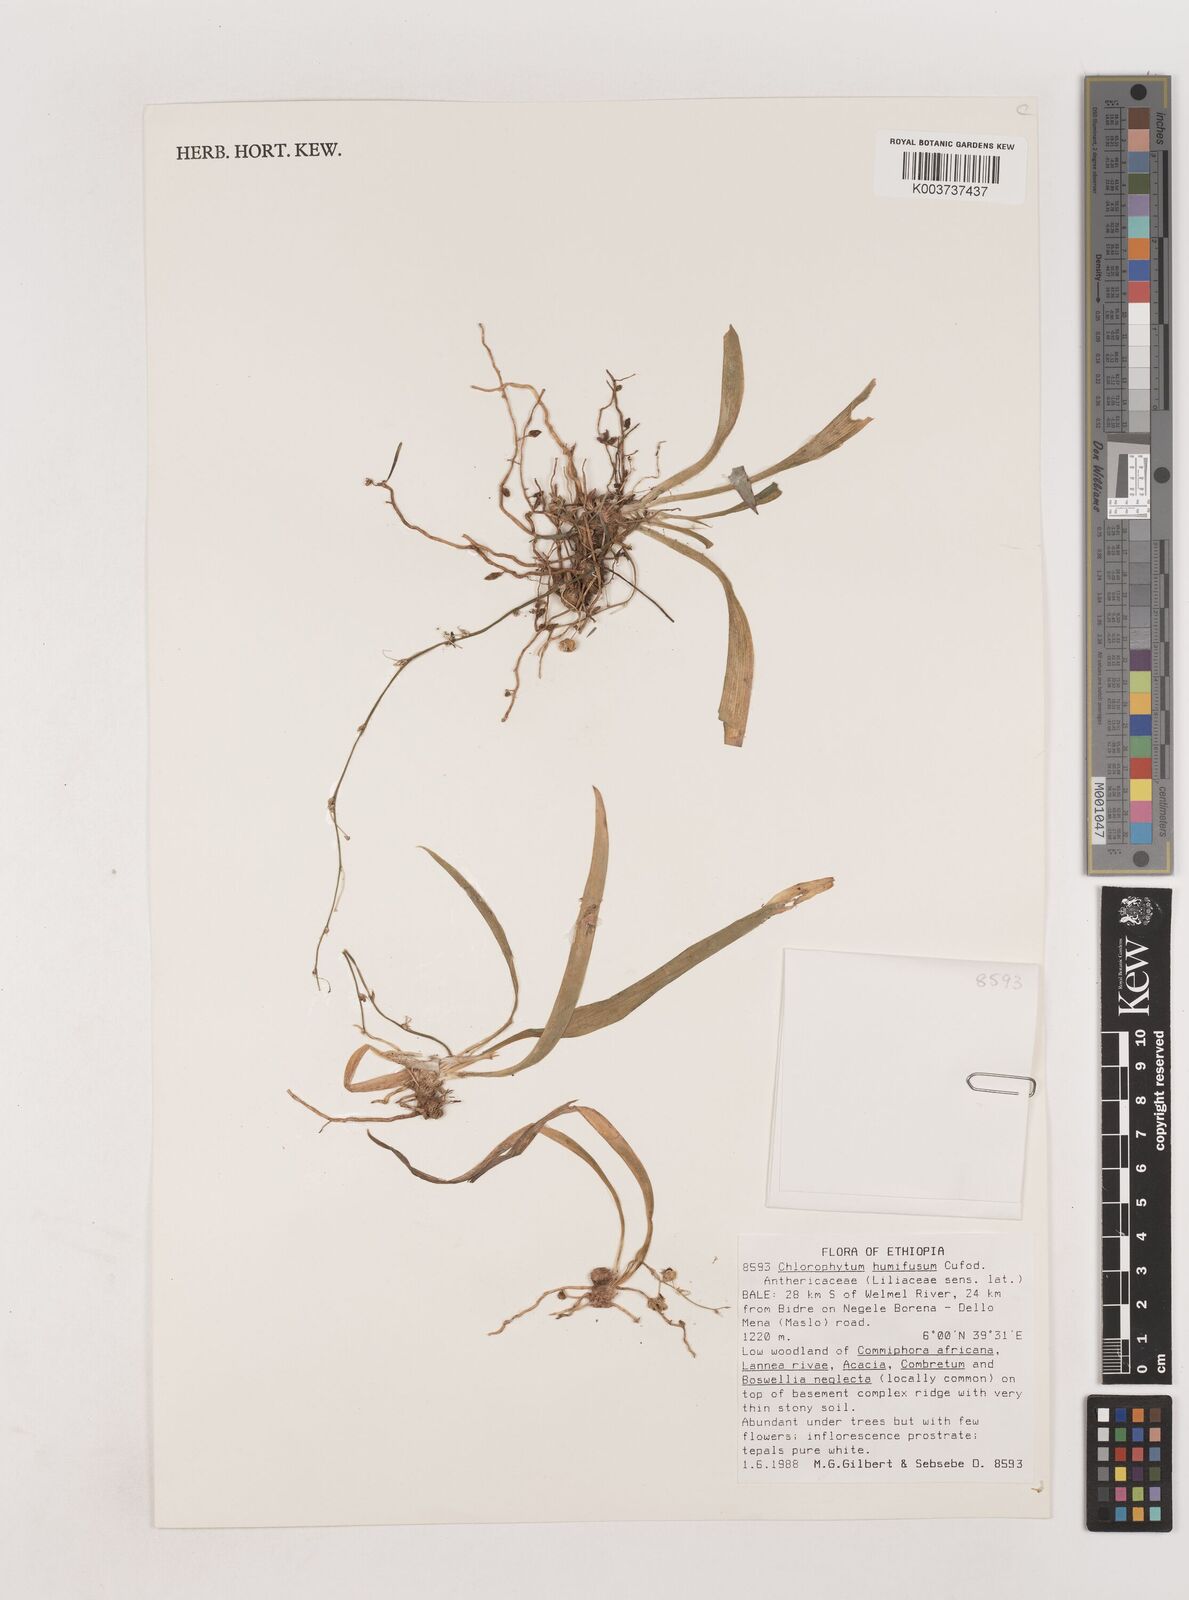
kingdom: Plantae
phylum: Tracheophyta
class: Liliopsida
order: Asparagales
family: Asparagaceae
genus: Chlorophytum
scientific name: Chlorophytum humifusum
